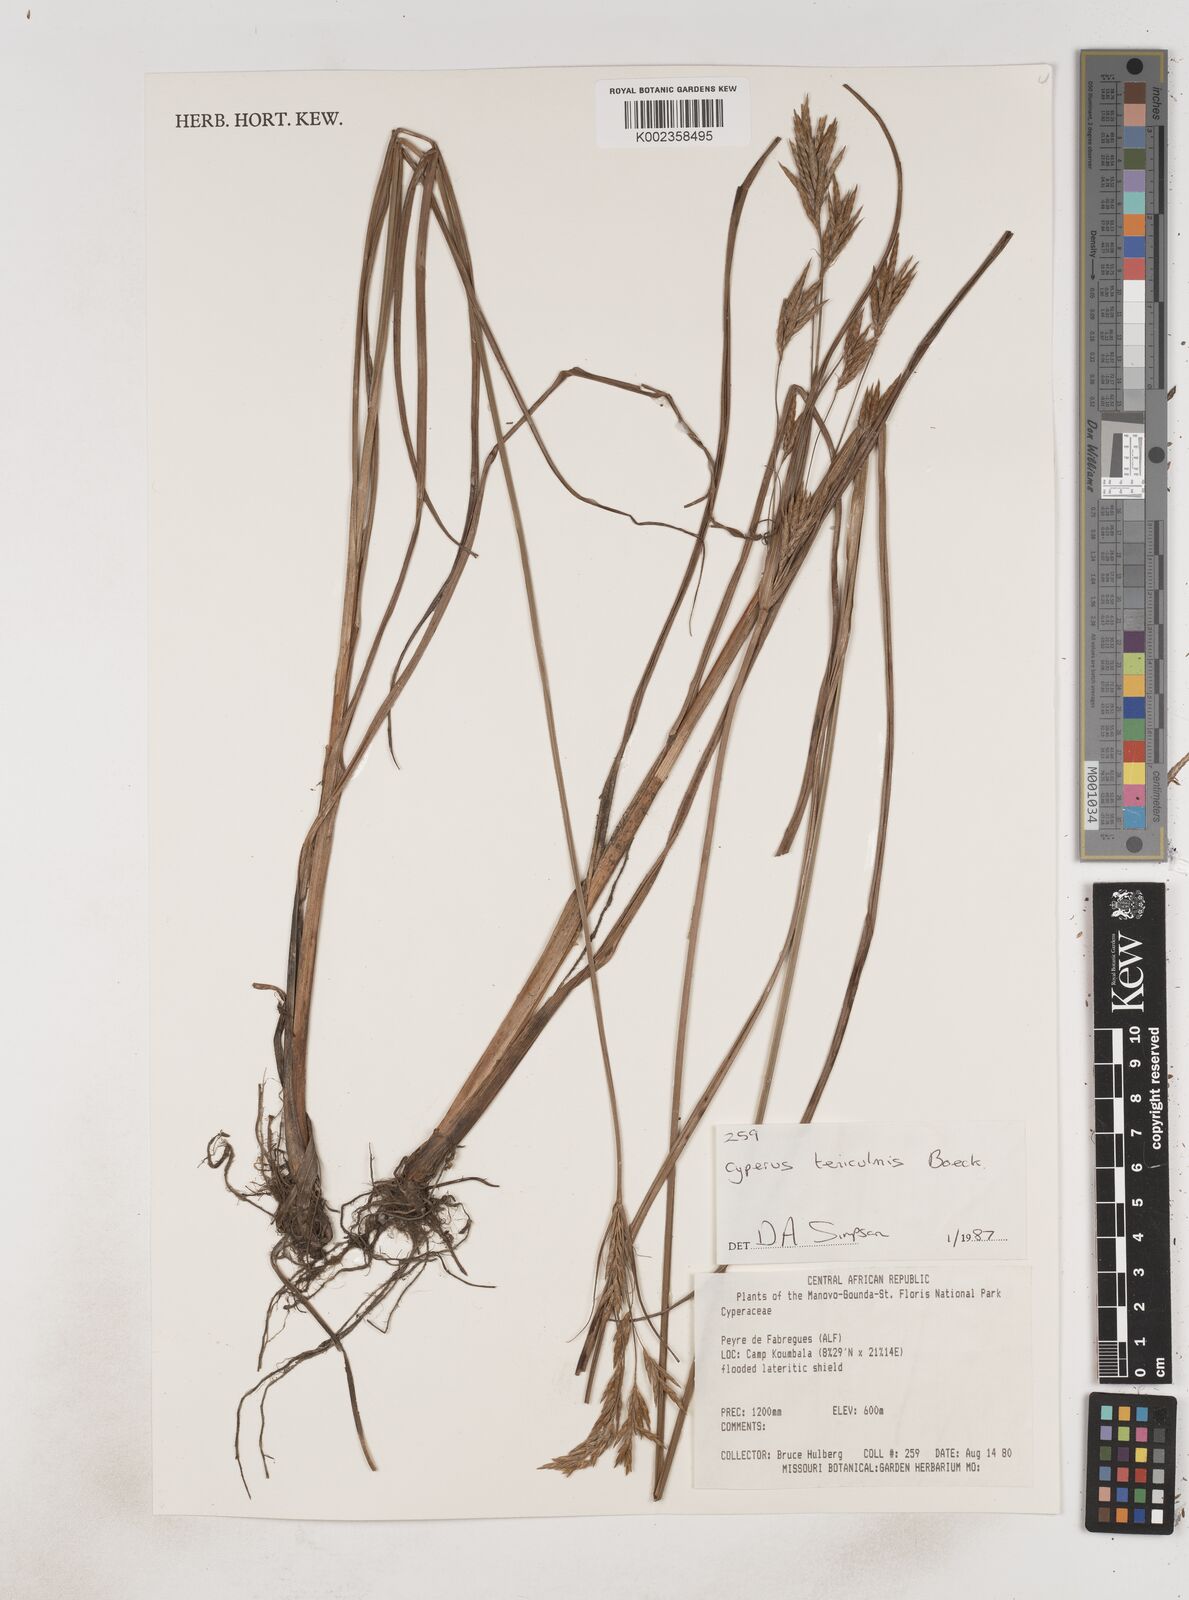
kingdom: Plantae
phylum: Tracheophyta
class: Liliopsida
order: Poales
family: Cyperaceae
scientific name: Cyperaceae
